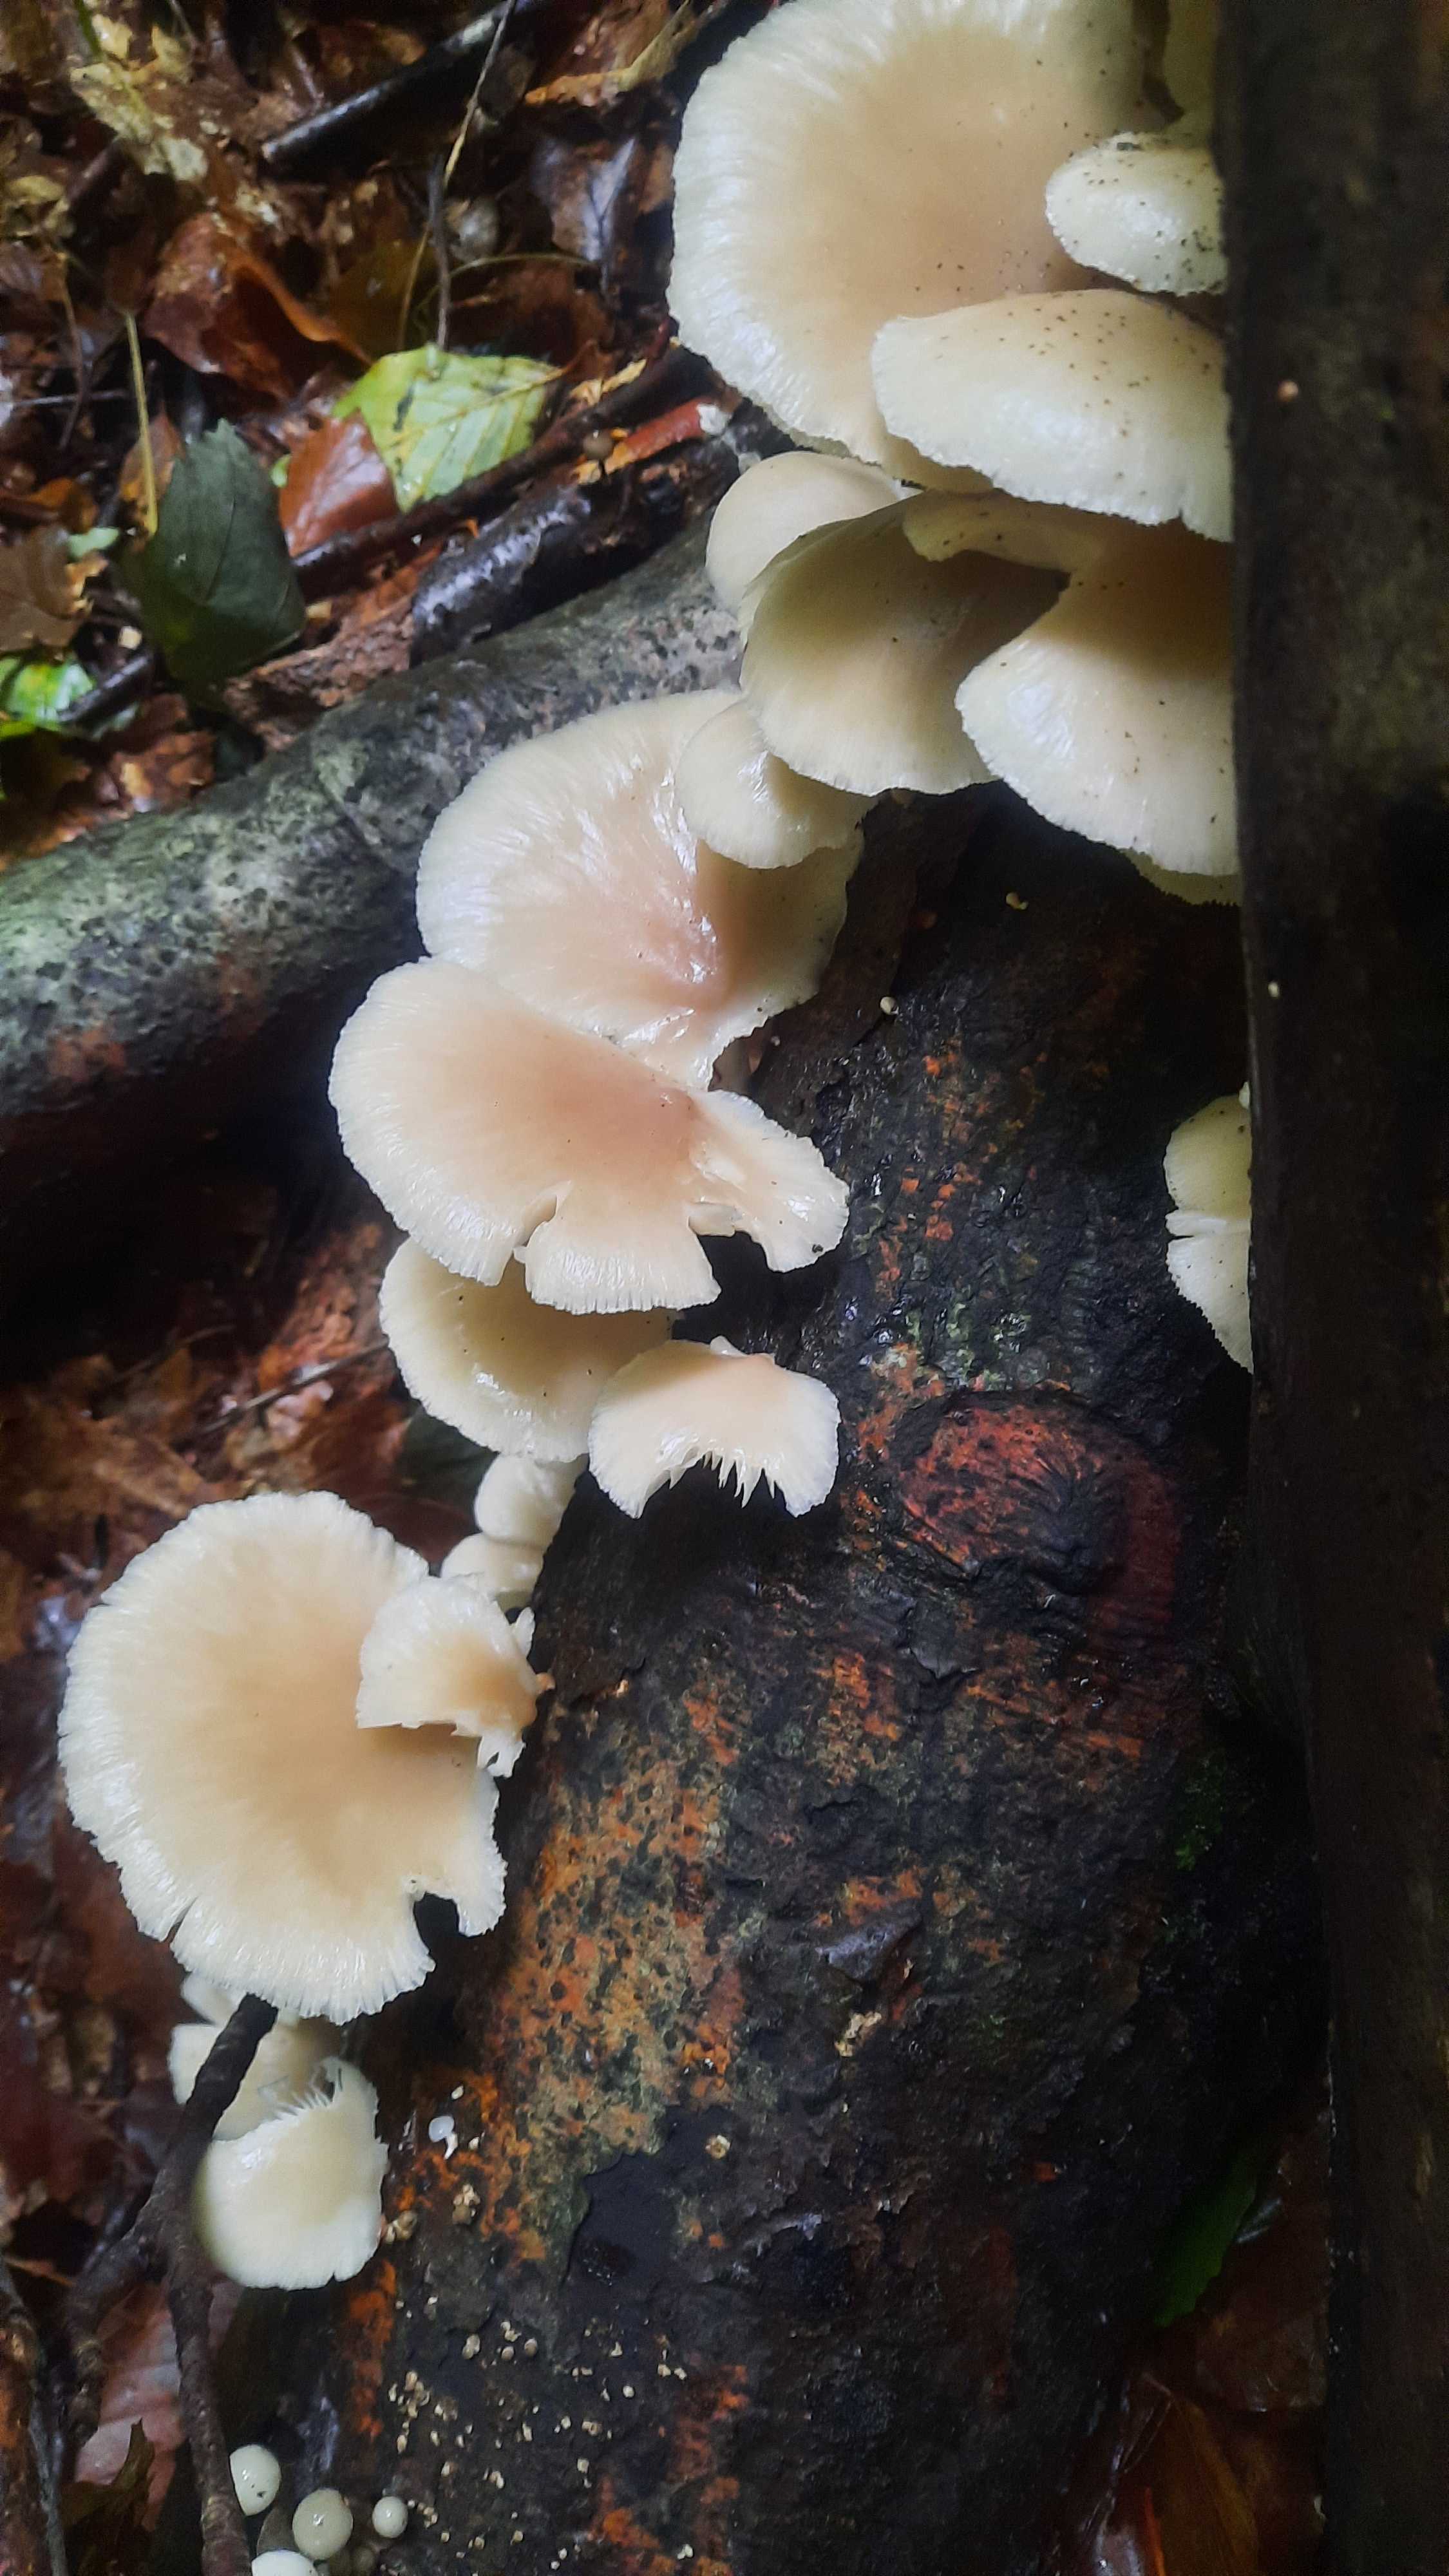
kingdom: Fungi
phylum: Basidiomycota
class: Agaricomycetes
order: Agaricales
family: Pleurotaceae
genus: Pleurotus
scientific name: Pleurotus pulmonarius
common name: sommer-østershat
